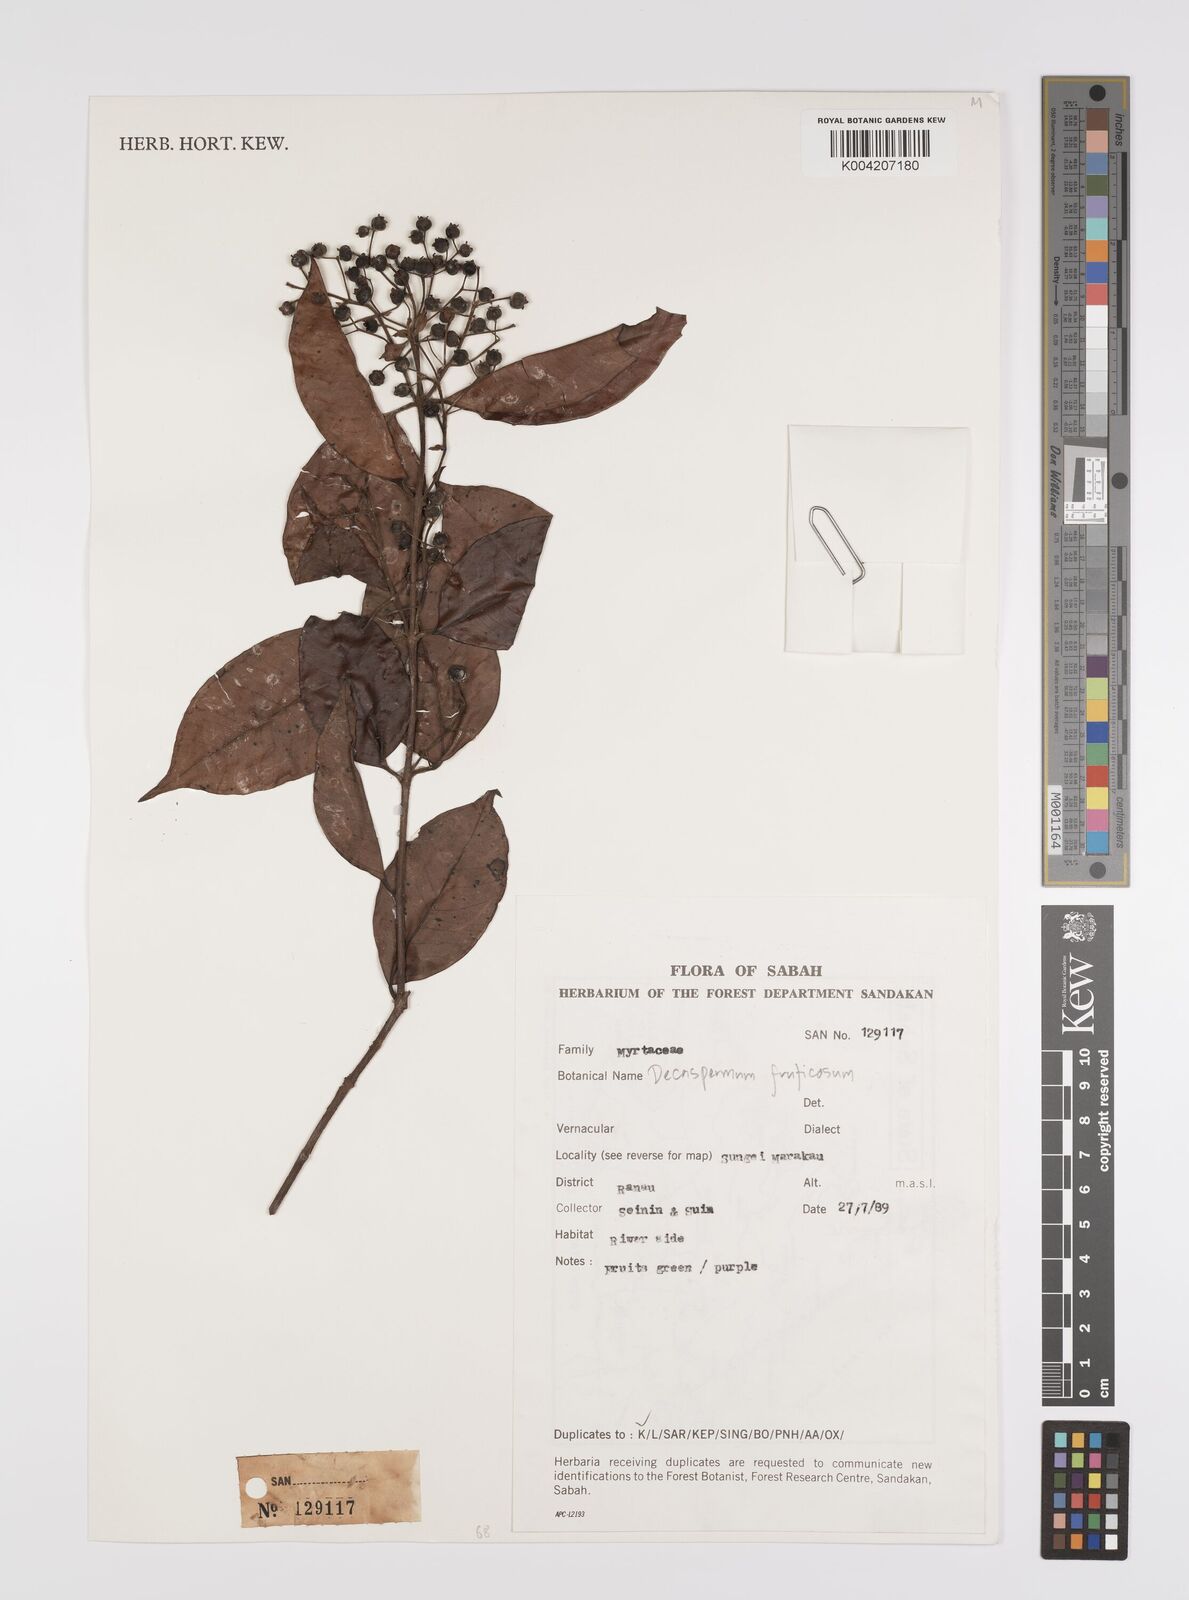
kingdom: Plantae
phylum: Tracheophyta
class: Magnoliopsida
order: Myrtales
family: Myrtaceae
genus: Decaspermum
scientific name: Decaspermum parviflorum
